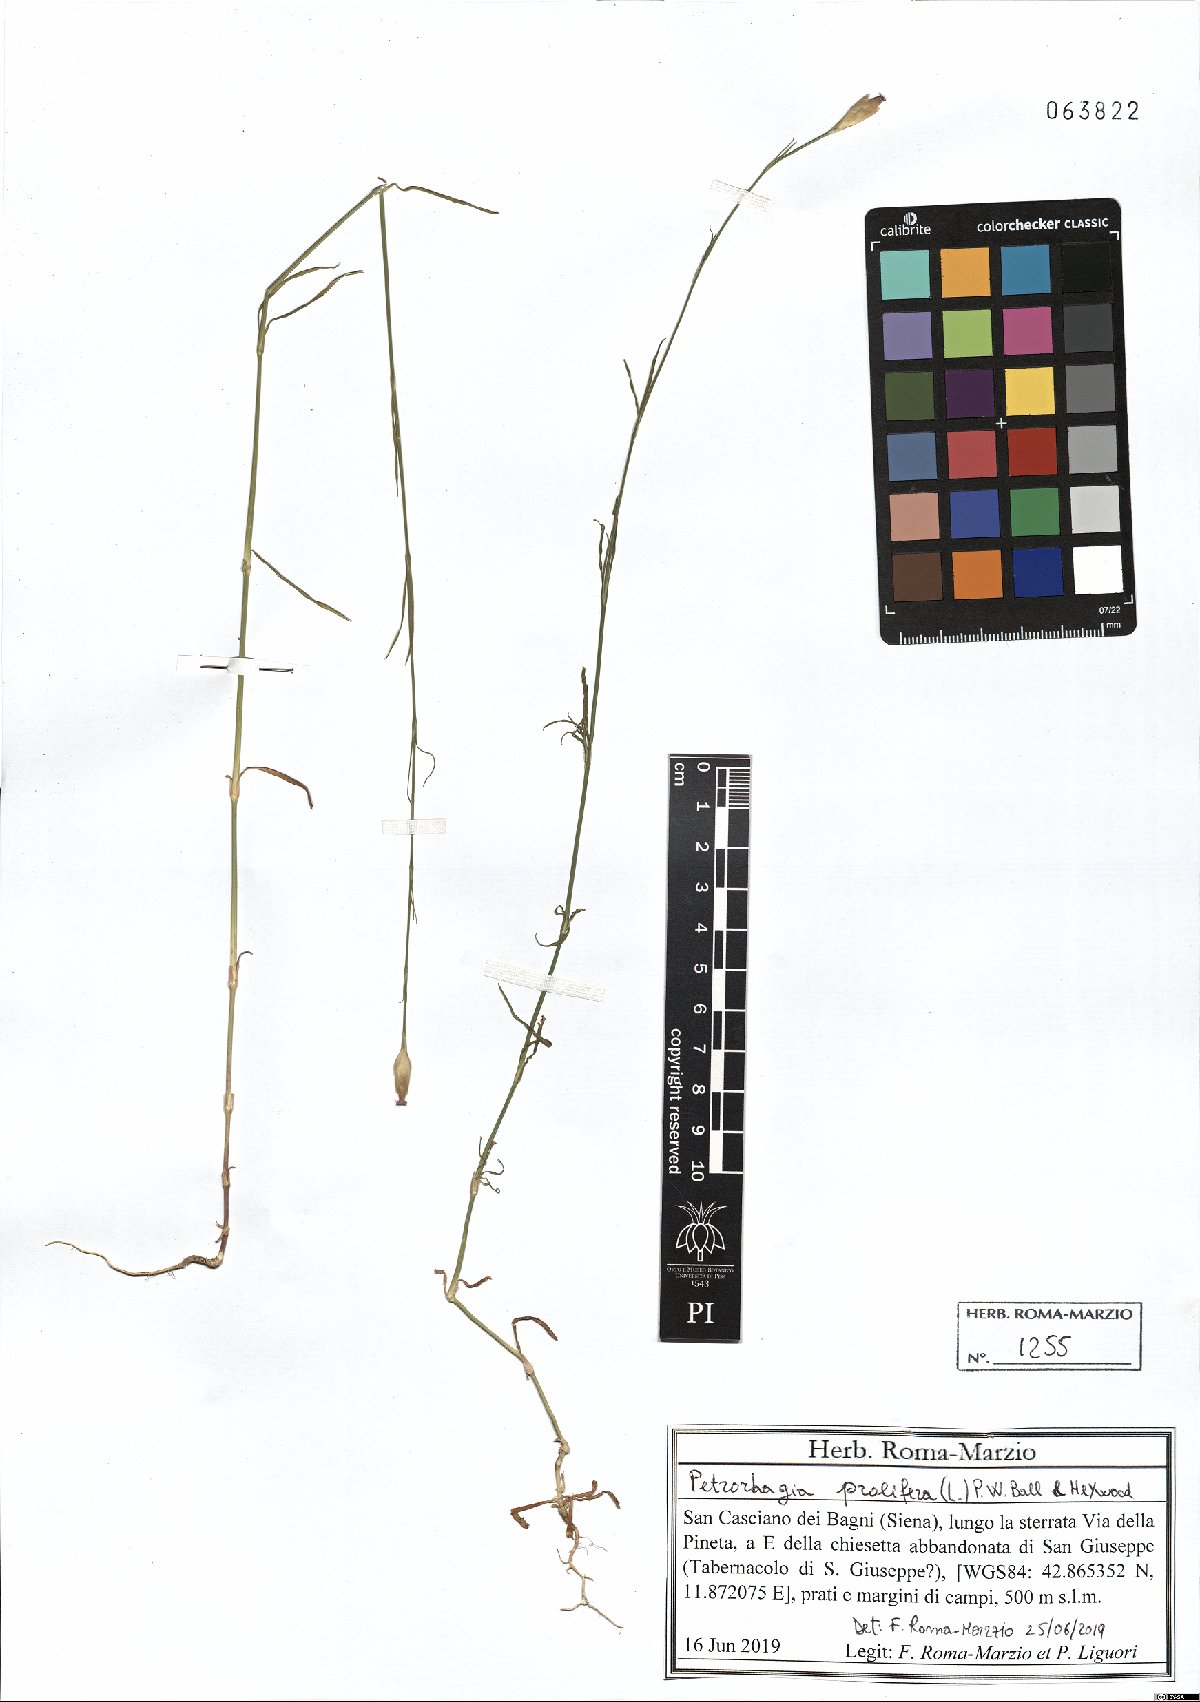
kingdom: Plantae
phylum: Tracheophyta
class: Magnoliopsida
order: Caryophyllales
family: Caryophyllaceae
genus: Petrorhagia
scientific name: Petrorhagia prolifera
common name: Proliferous pink
